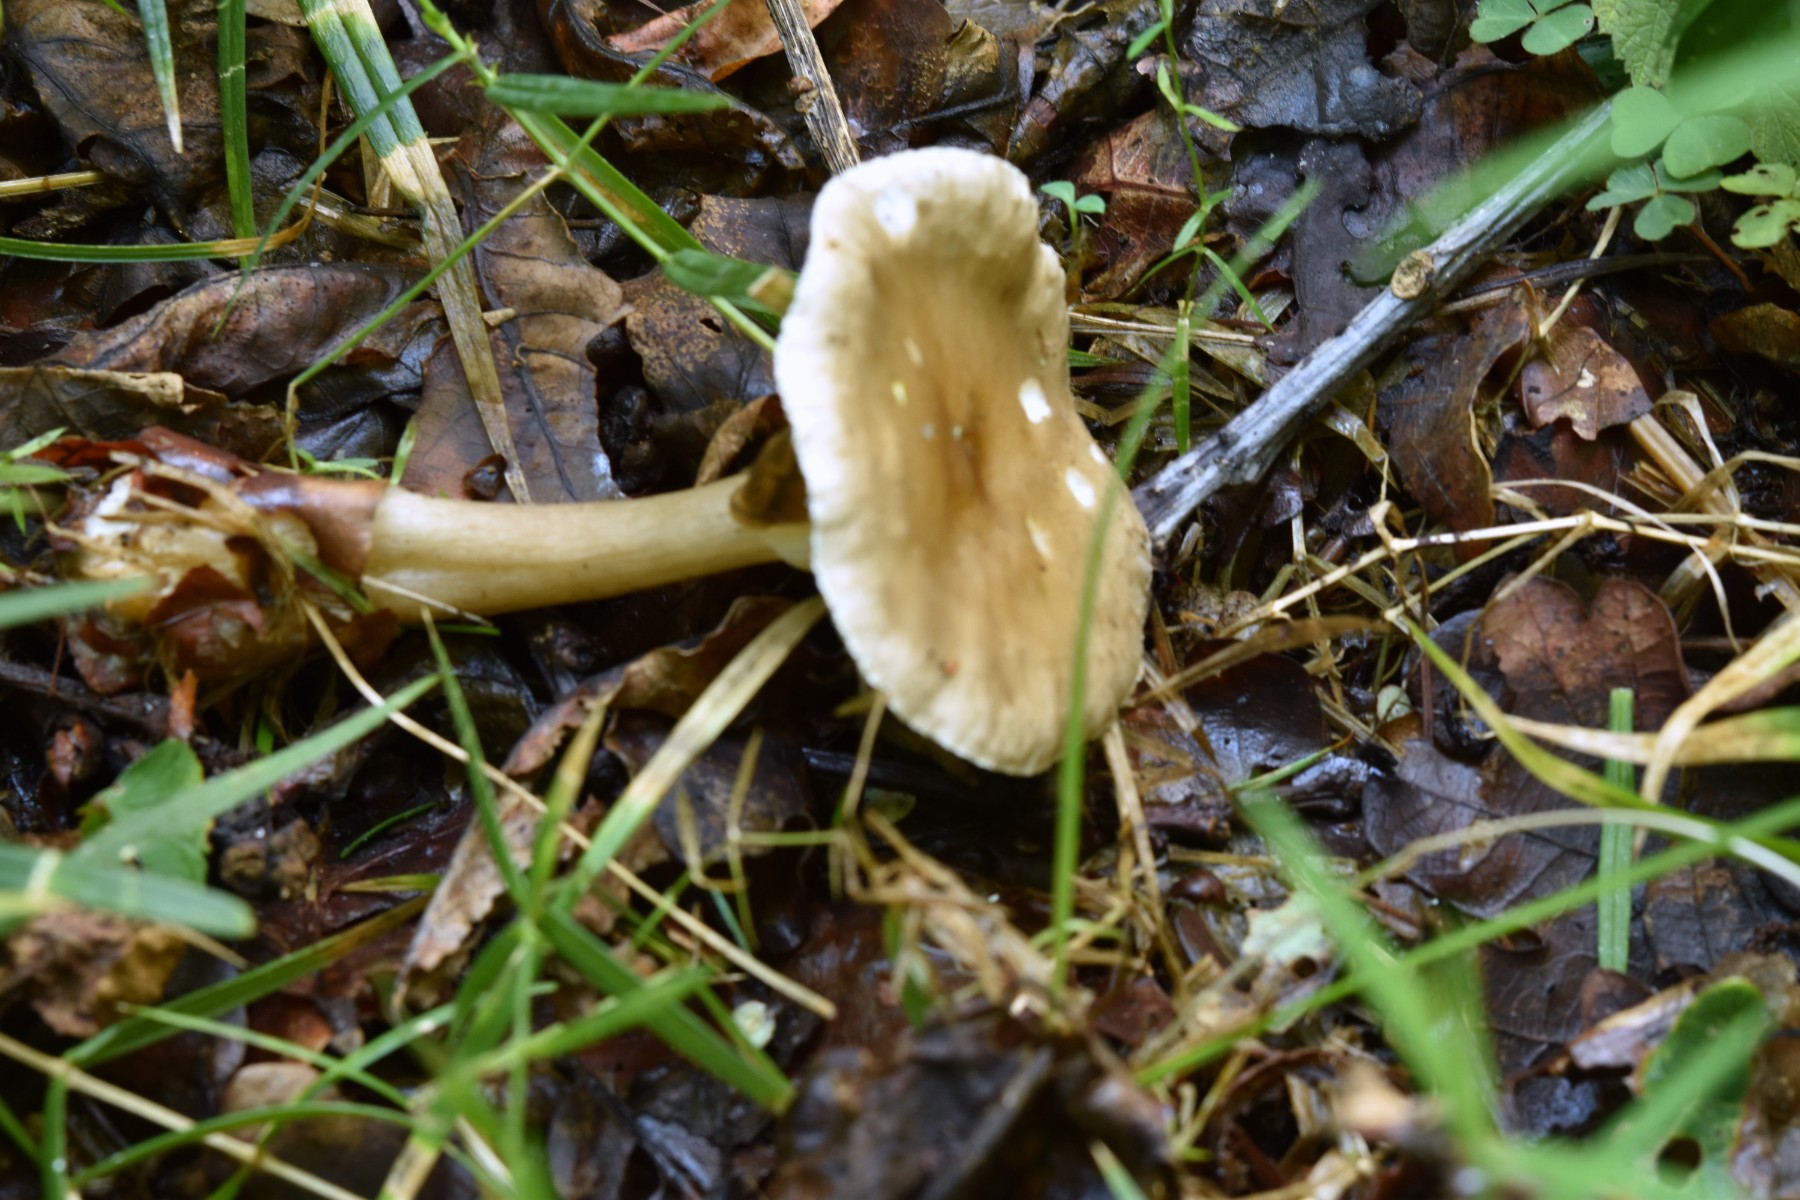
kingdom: Fungi
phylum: Basidiomycota
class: Agaricomycetes
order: Agaricales
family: Hygrophoraceae
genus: Ampulloclitocybe
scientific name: Ampulloclitocybe clavipes
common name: køllefod
